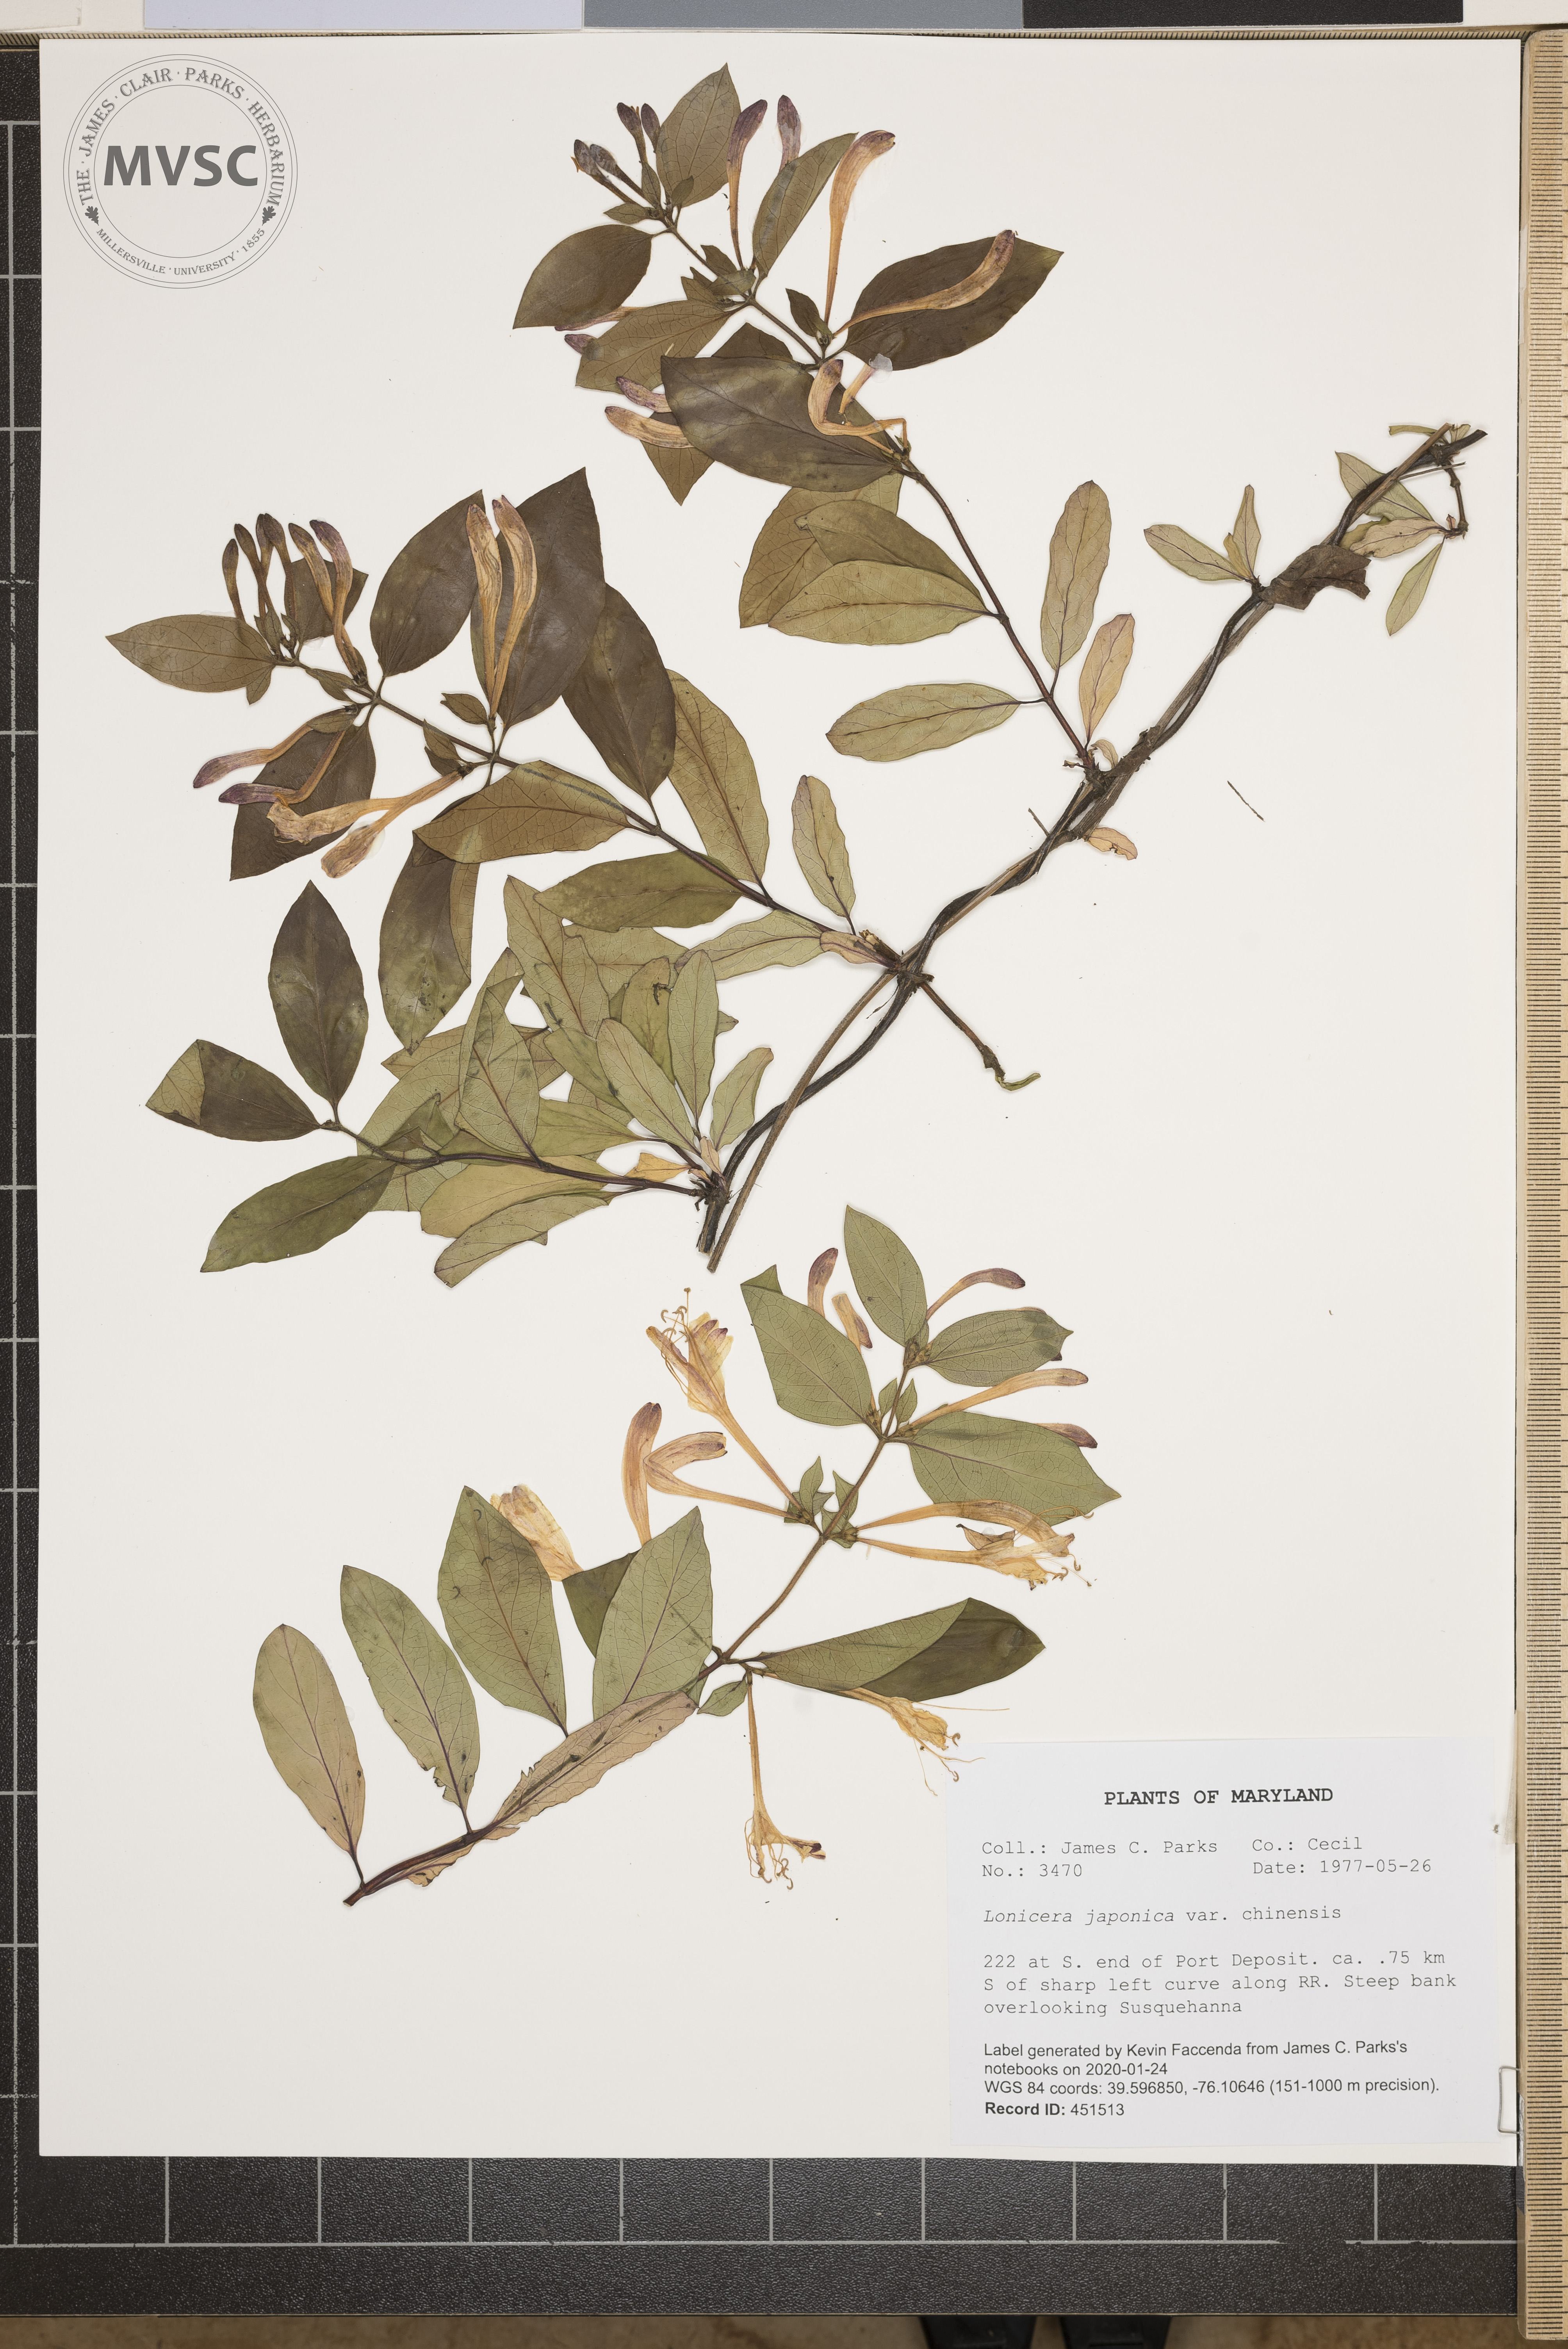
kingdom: Plantae
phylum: Tracheophyta
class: Magnoliopsida
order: Dipsacales
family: Caprifoliaceae
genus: Lonicera
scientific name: Lonicera japonica
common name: Japanese honeysuckle
